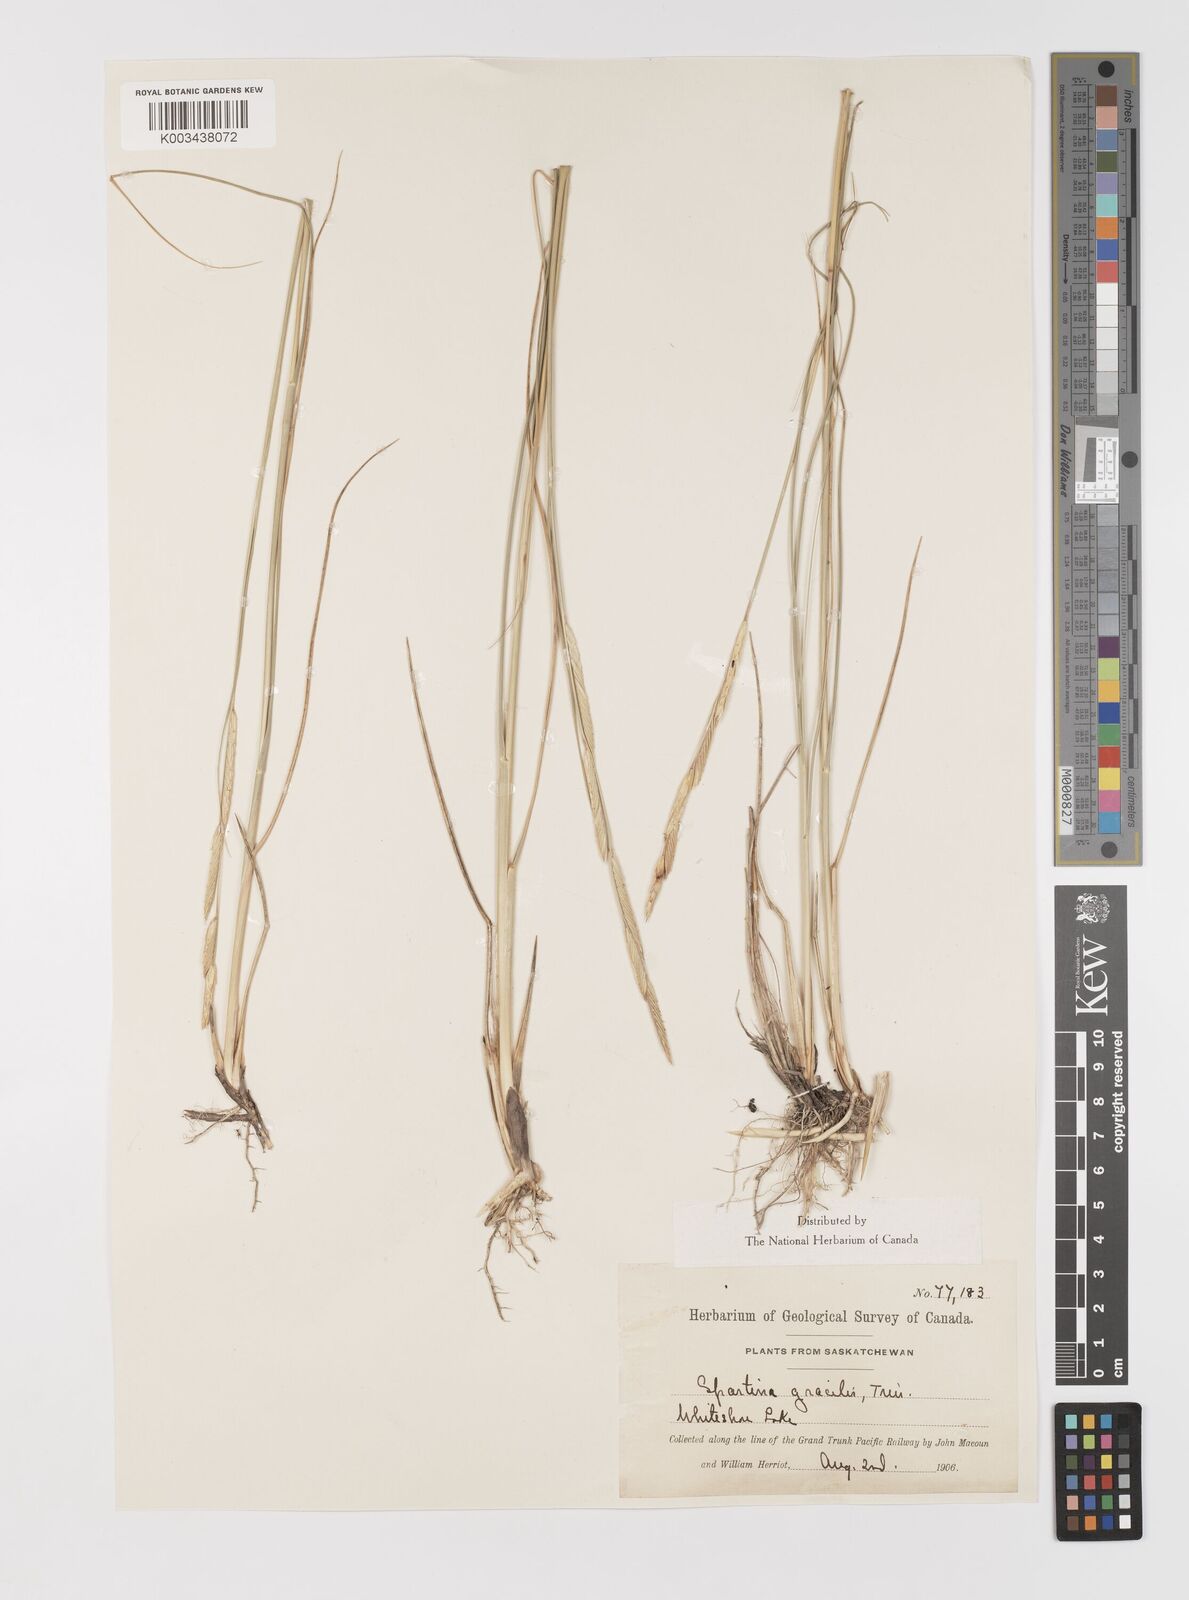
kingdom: Plantae
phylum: Tracheophyta
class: Liliopsida
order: Poales
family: Poaceae
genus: Sporobolus
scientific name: Sporobolus hookerianus
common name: Alkali cordgrass
